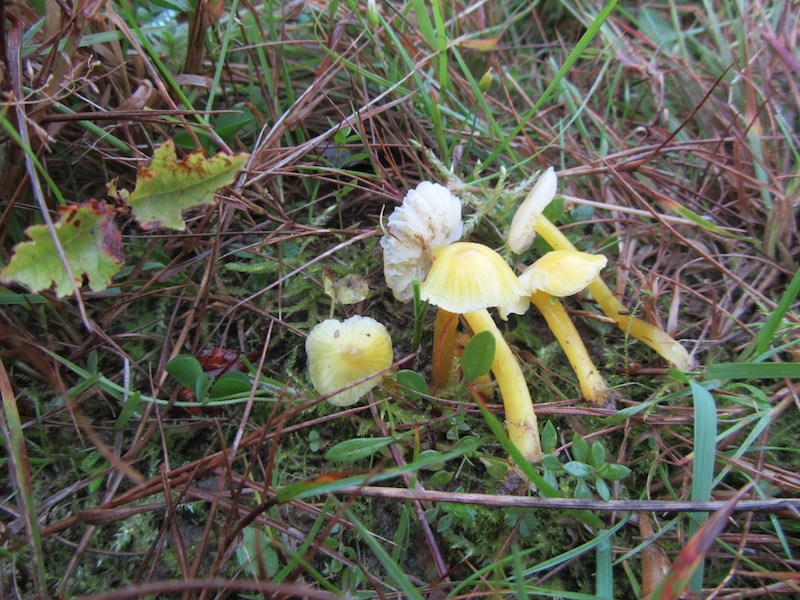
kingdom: Fungi
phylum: Basidiomycota
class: Agaricomycetes
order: Agaricales
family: Hygrophoraceae
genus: Hygrocybe
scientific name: Hygrocybe ceracea
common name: voksgul vokshat
